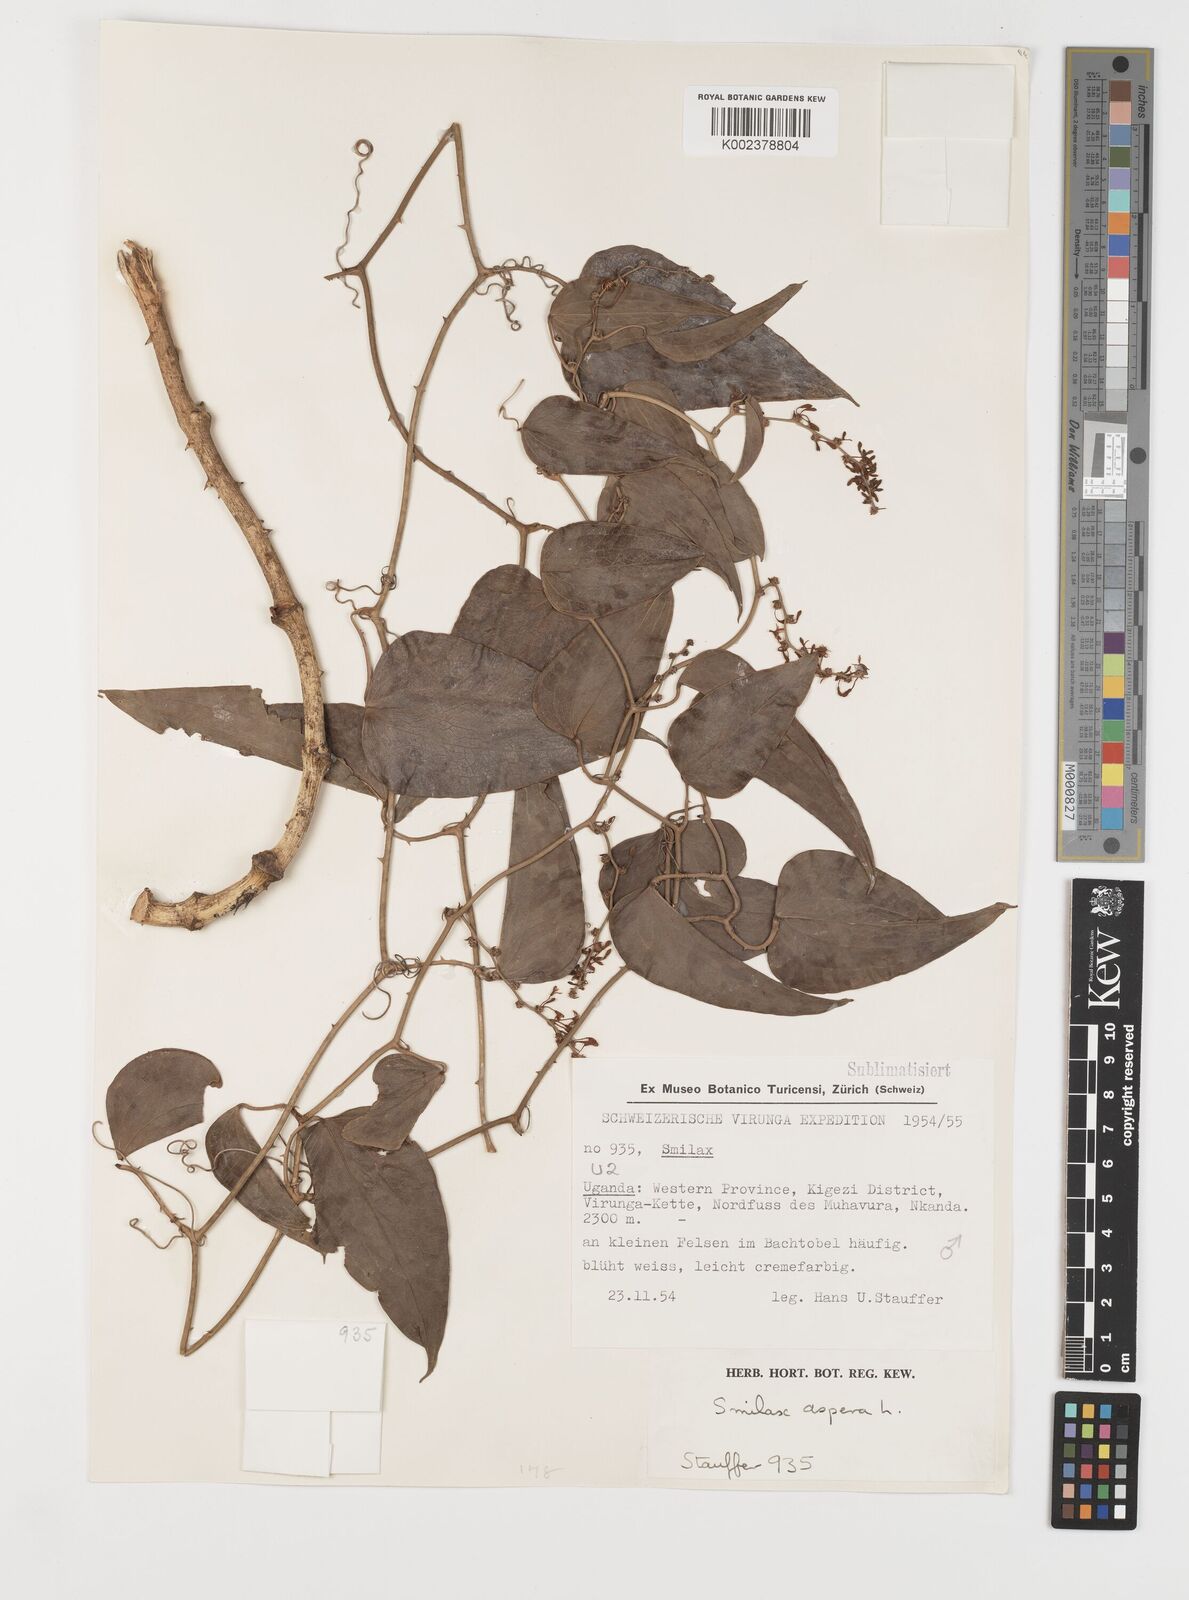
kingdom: Plantae
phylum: Tracheophyta
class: Liliopsida
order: Liliales
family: Smilacaceae
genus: Smilax
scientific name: Smilax aspera
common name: Common smilax
